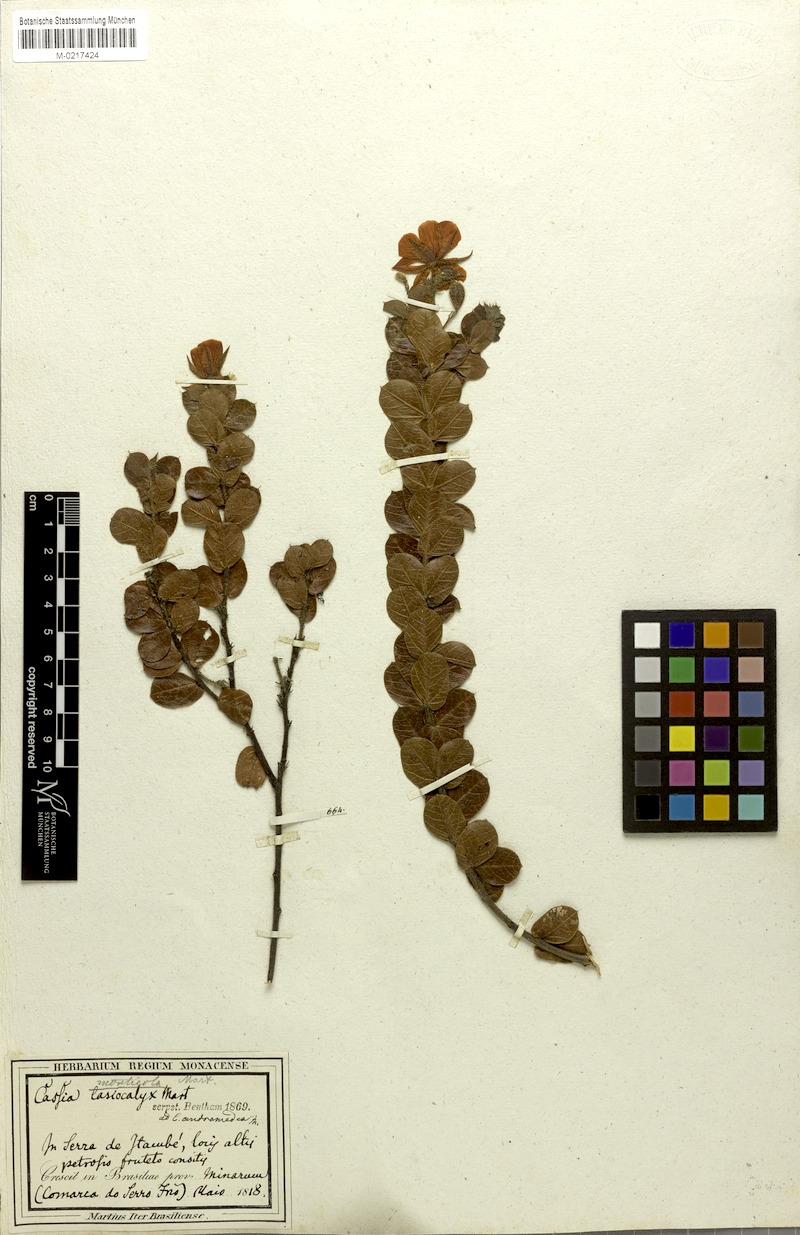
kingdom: Plantae
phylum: Tracheophyta
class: Magnoliopsida
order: Fabales
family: Fabaceae
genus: Chamaecrista
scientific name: Chamaecrista monticola
